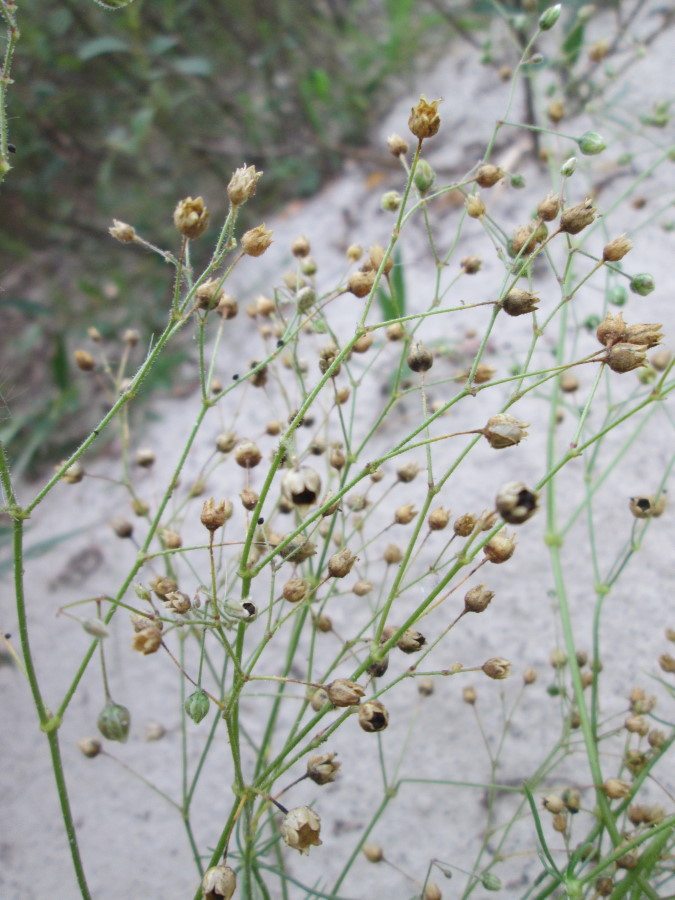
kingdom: Plantae
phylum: Tracheophyta
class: Magnoliopsida
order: Caryophyllales
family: Caryophyllaceae
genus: Spergula
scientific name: Spergula arvensis
